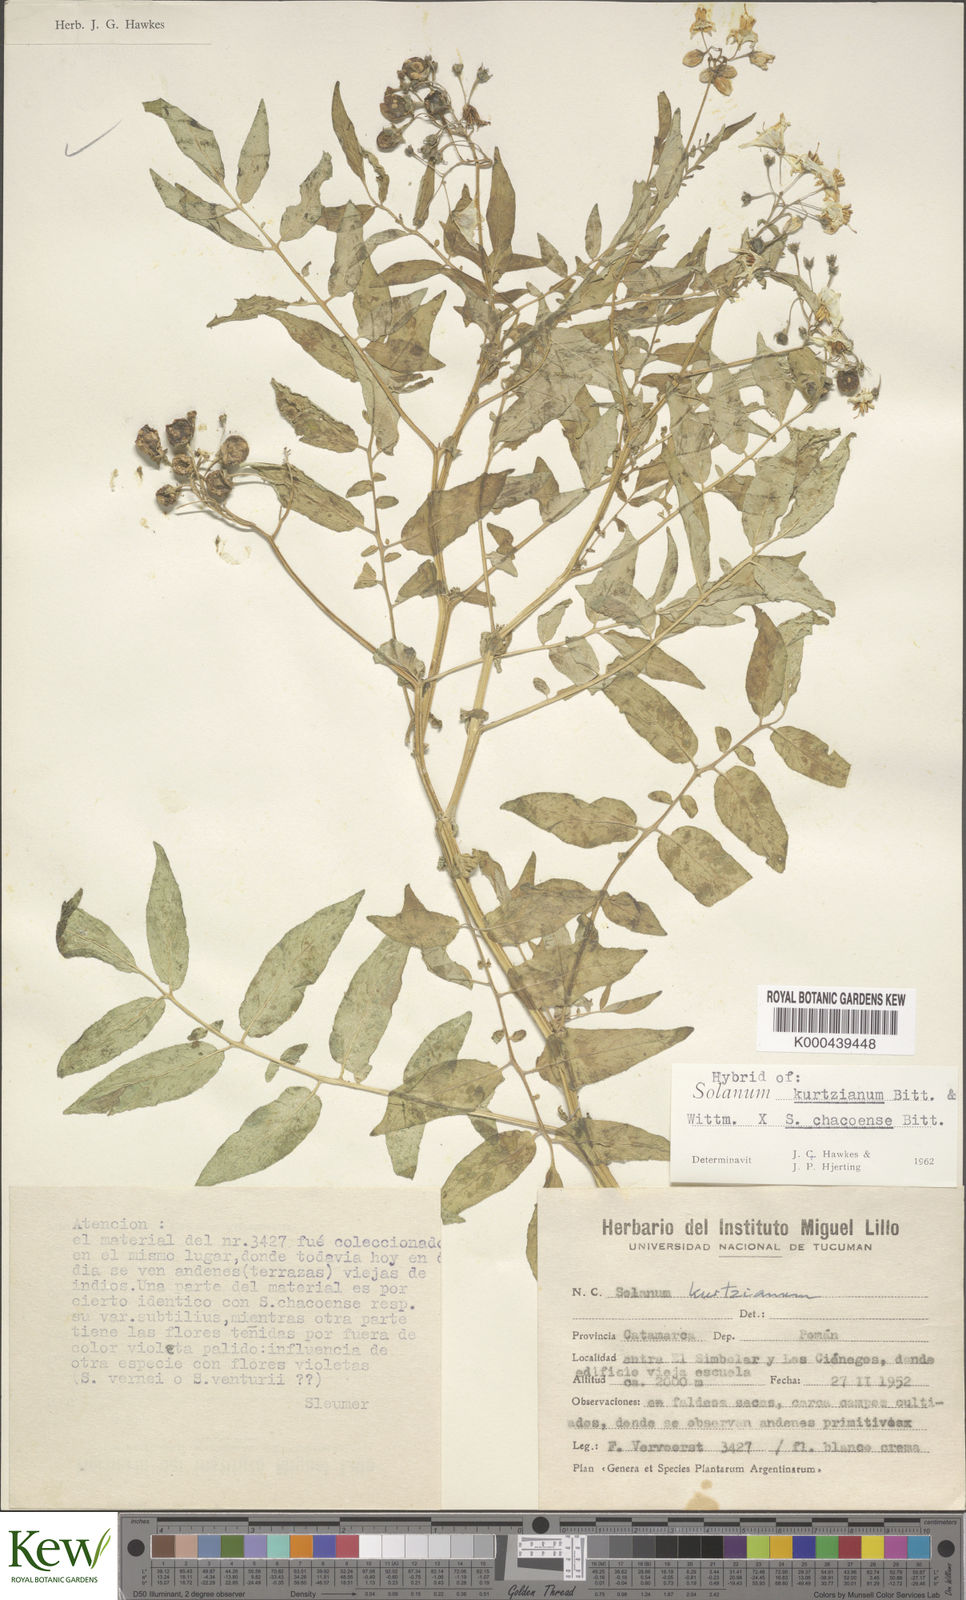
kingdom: Plantae
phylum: Tracheophyta
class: Magnoliopsida
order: Solanales
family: Solanaceae
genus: Solanum
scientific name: Solanum chacoense
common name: Chaco potato
